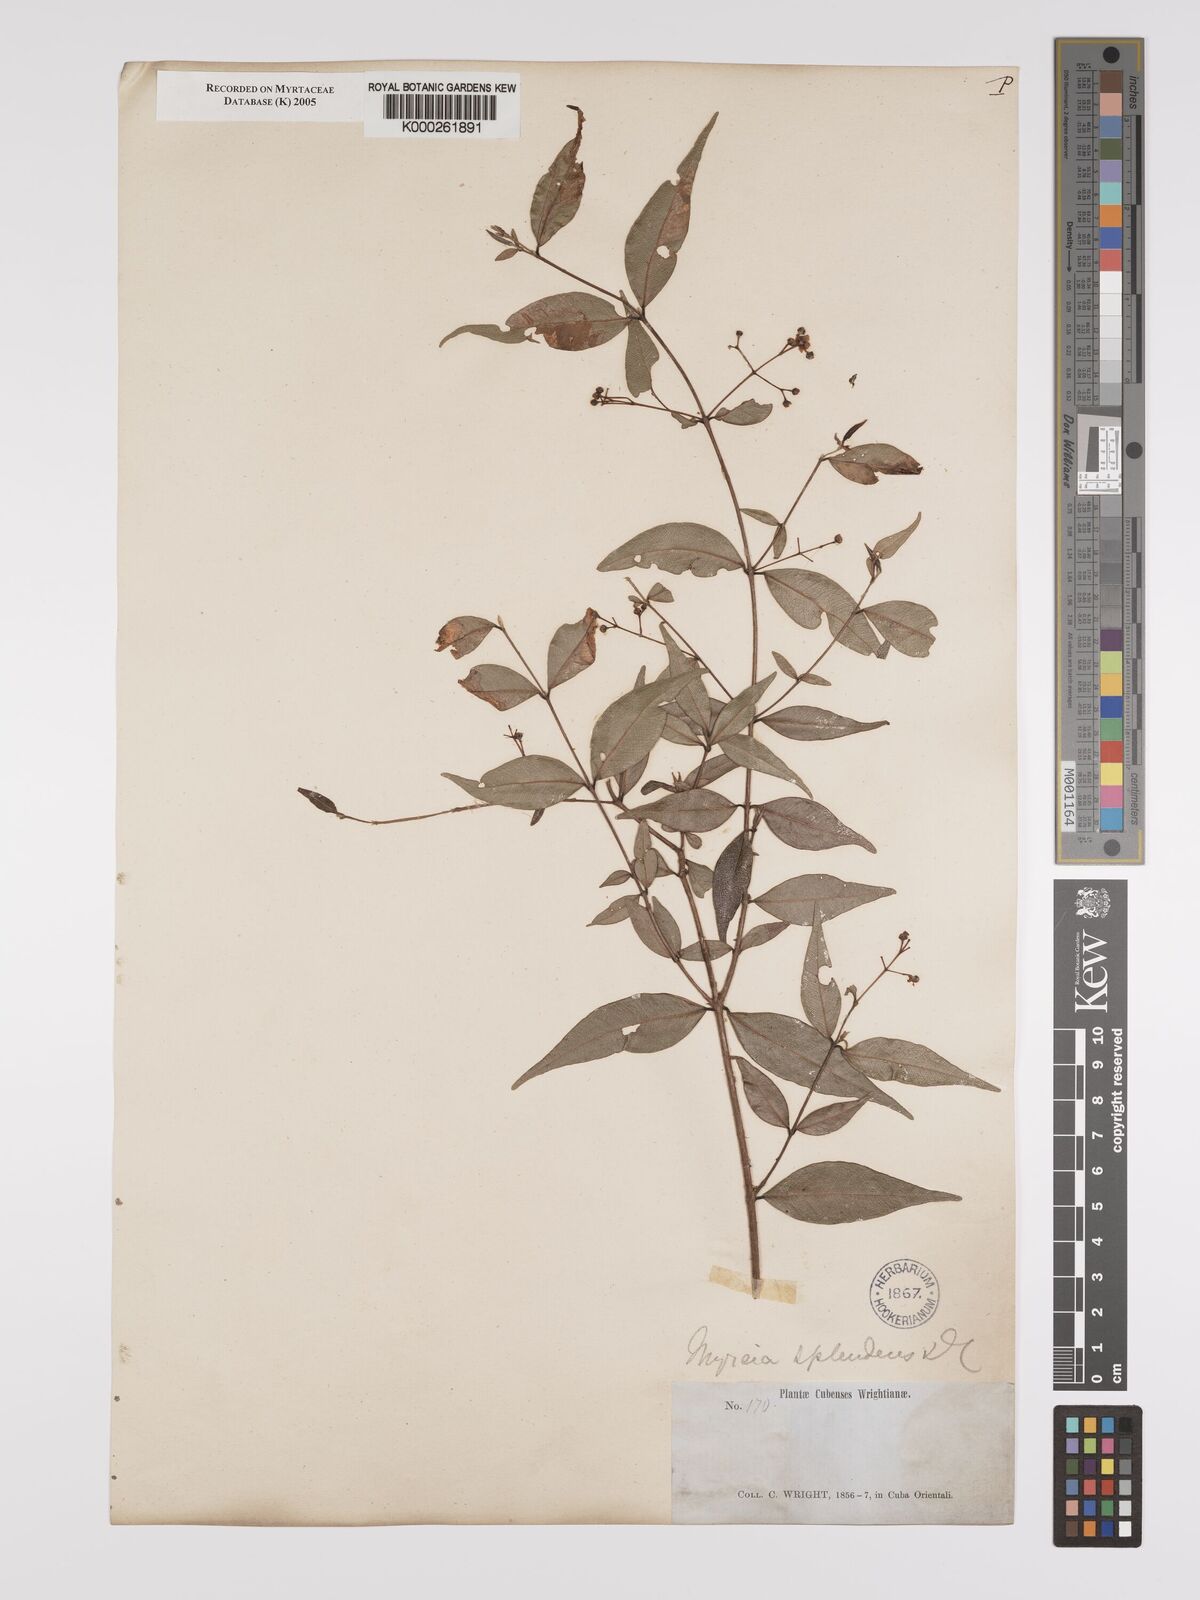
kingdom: Plantae
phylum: Tracheophyta
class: Magnoliopsida
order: Myrtales
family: Myrtaceae
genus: Myrcia
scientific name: Myrcia splendens
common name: Surinam cherry
